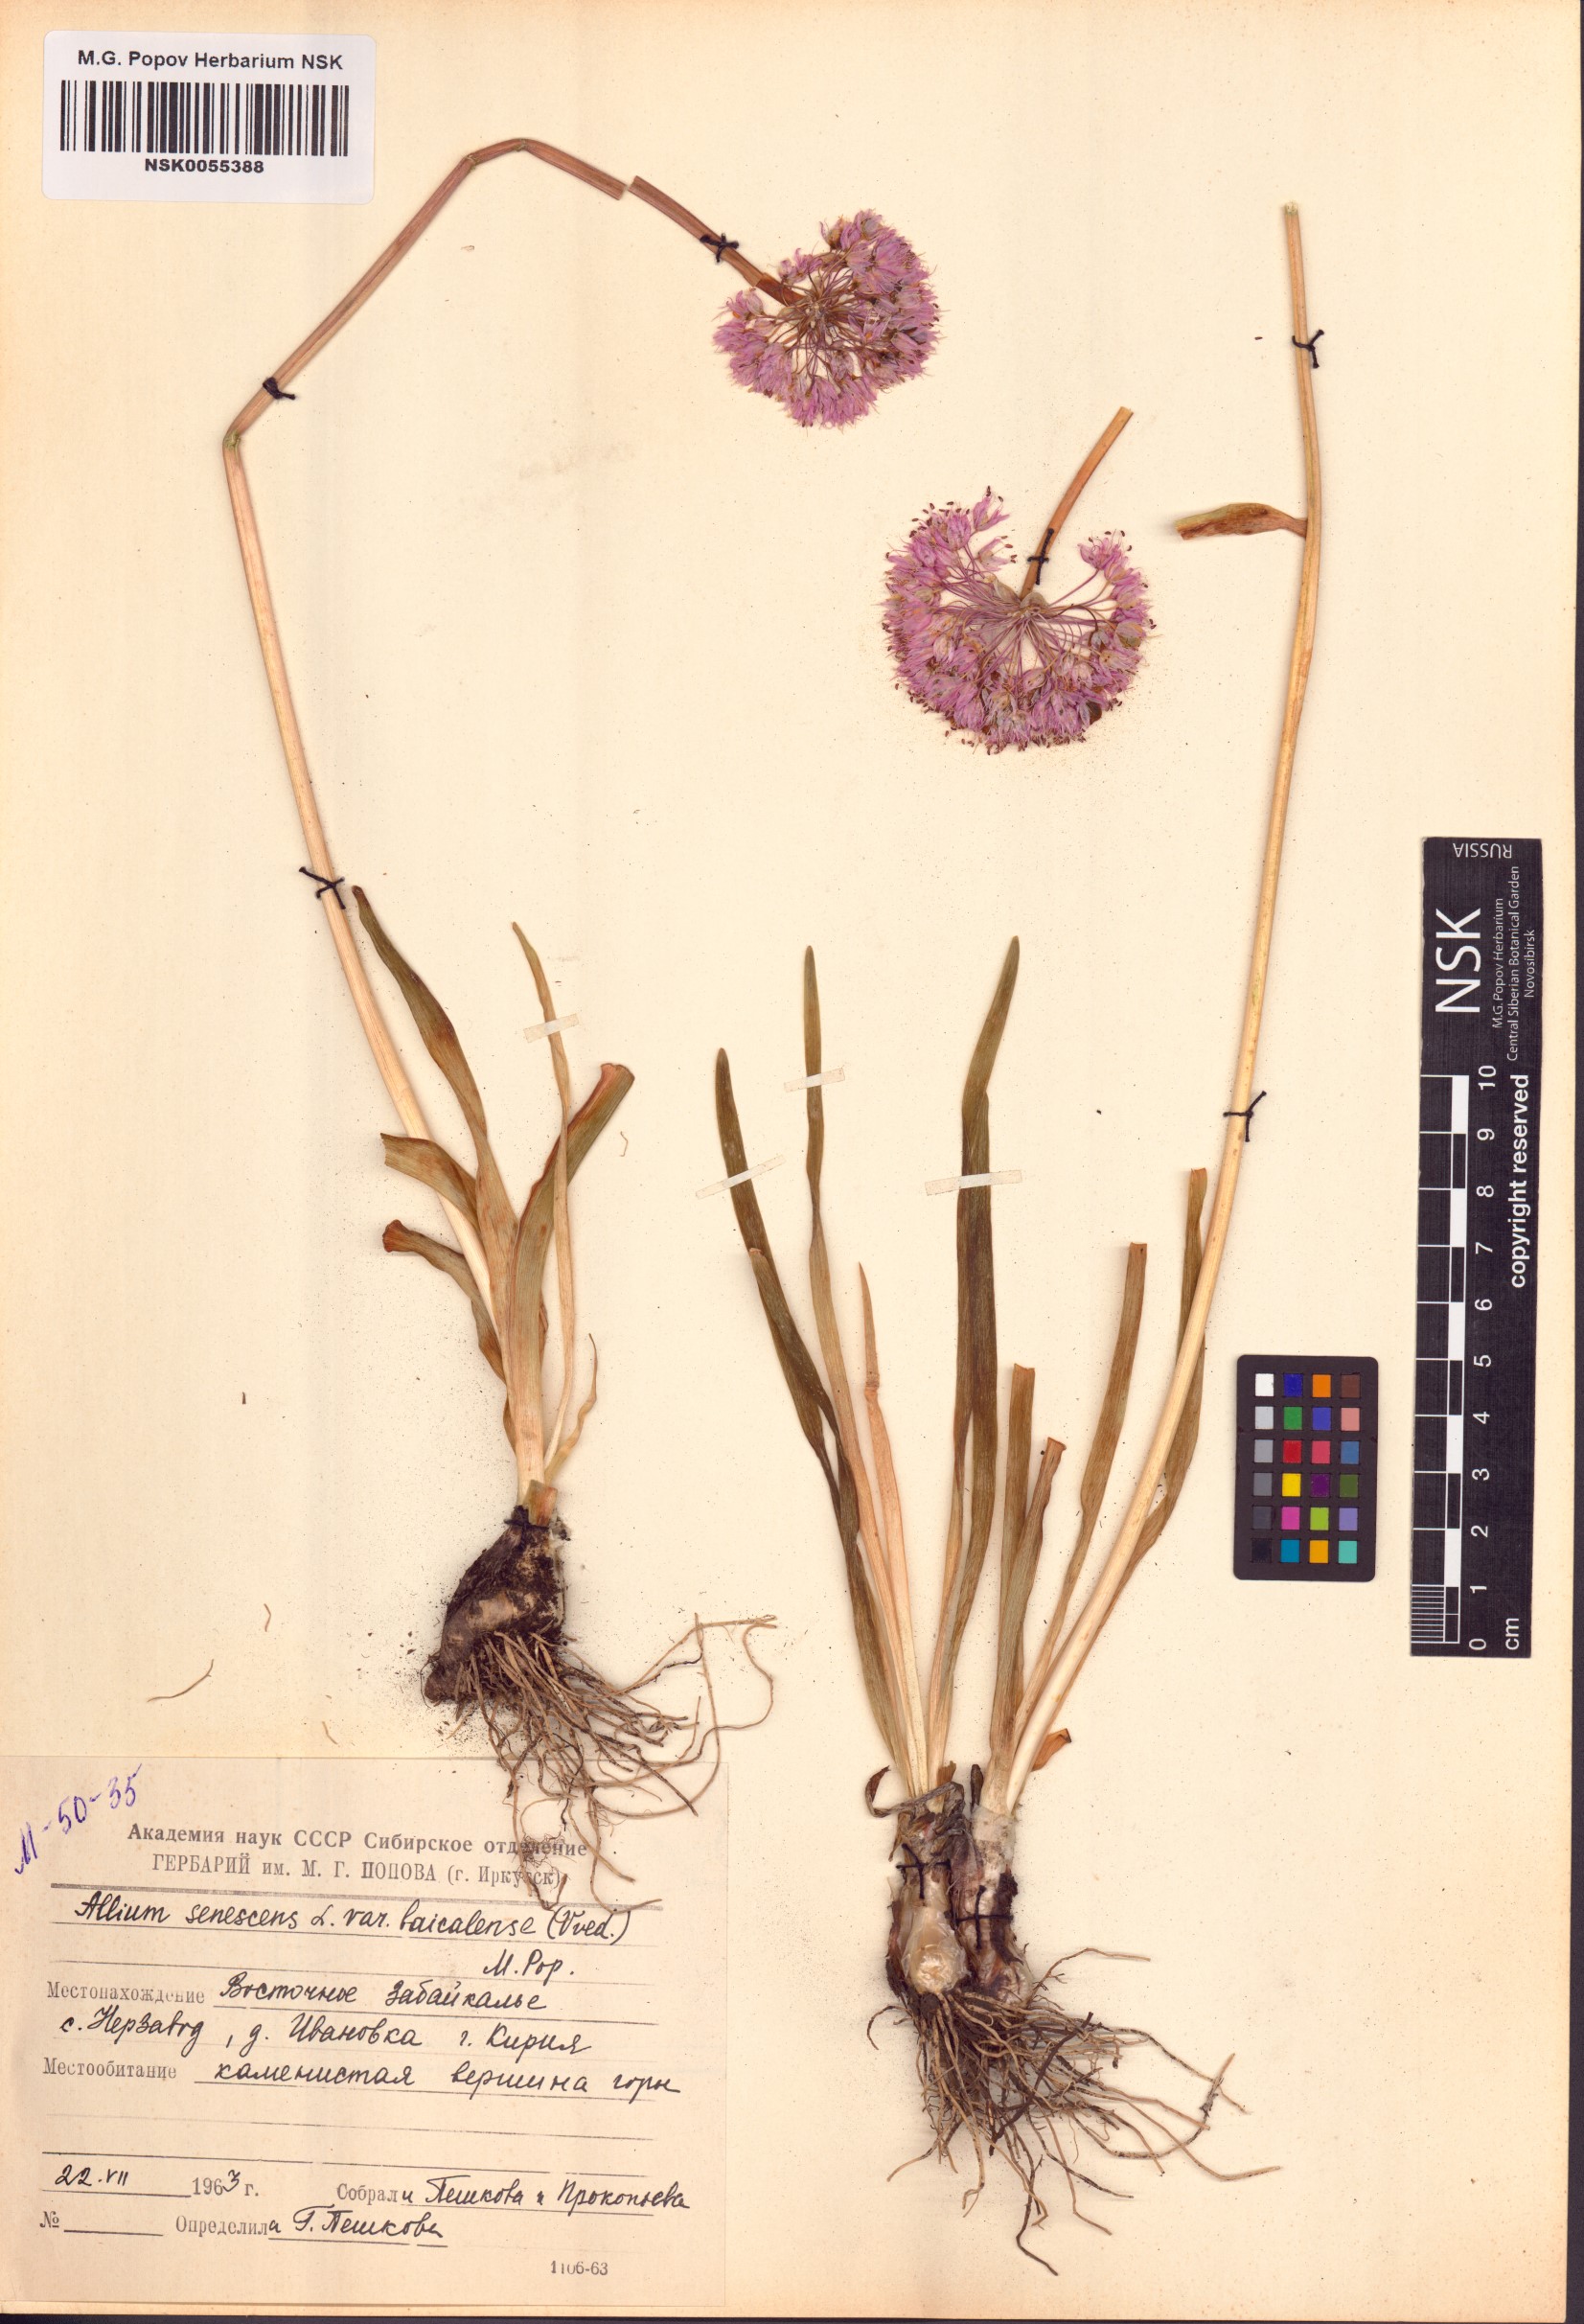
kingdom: Plantae
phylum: Tracheophyta
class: Liliopsida
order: Asparagales
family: Amaryllidaceae
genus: Allium
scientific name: Allium senescens
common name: German garlic
